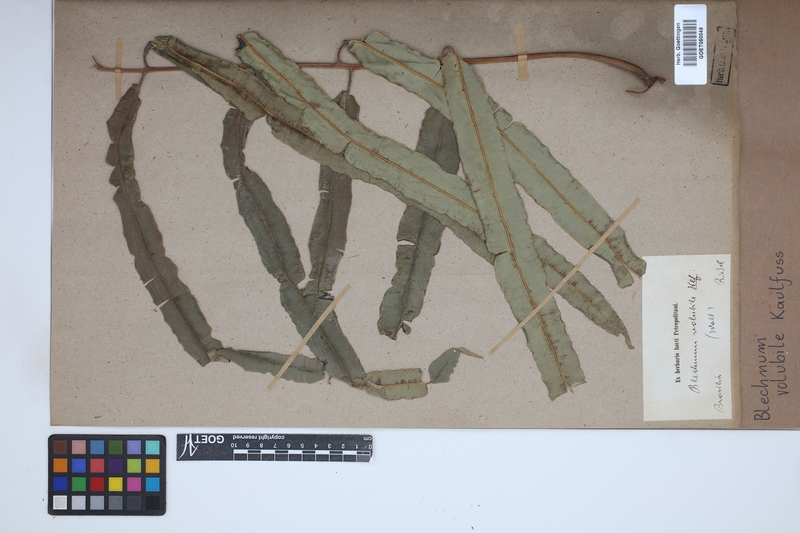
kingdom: Plantae
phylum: Tracheophyta
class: Polypodiopsida
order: Polypodiales
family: Blechnaceae
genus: Salpichlaena
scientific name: Salpichlaena volubilis
